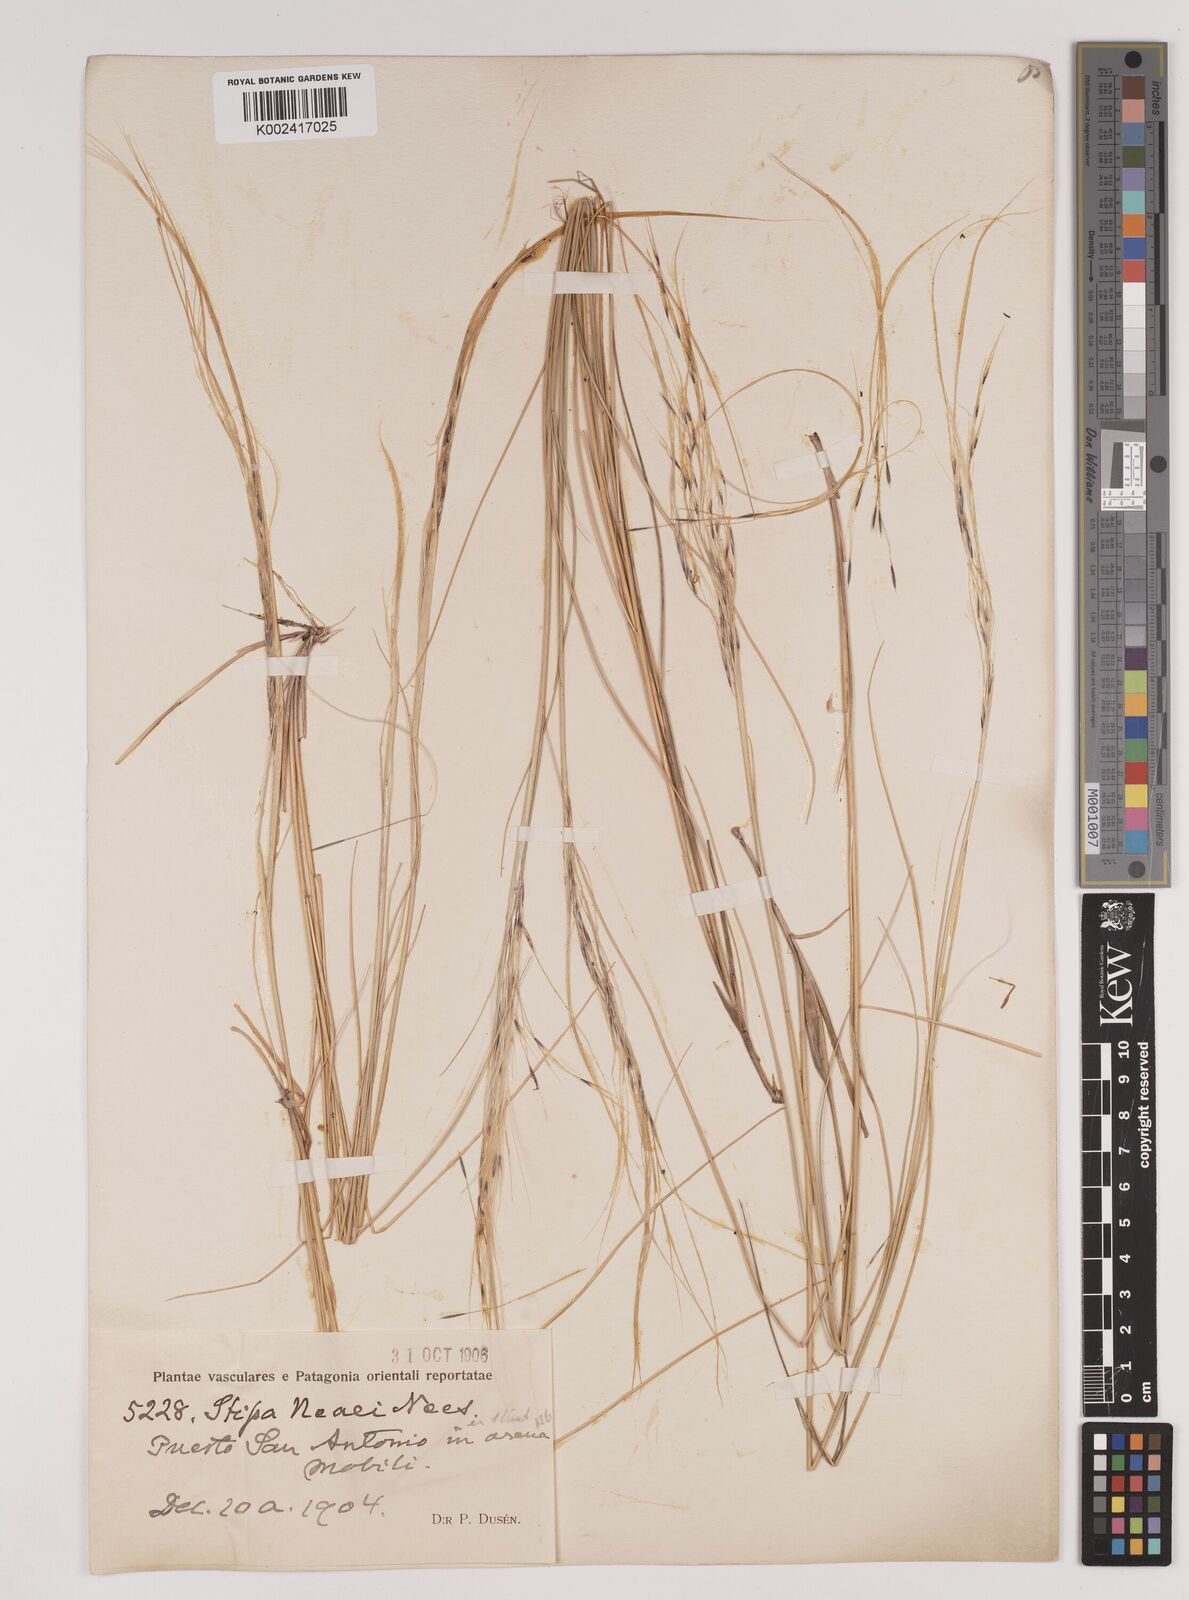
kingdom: Plantae
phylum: Tracheophyta
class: Liliopsida
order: Poales
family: Poaceae
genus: Stipa
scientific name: Stipa neaei
